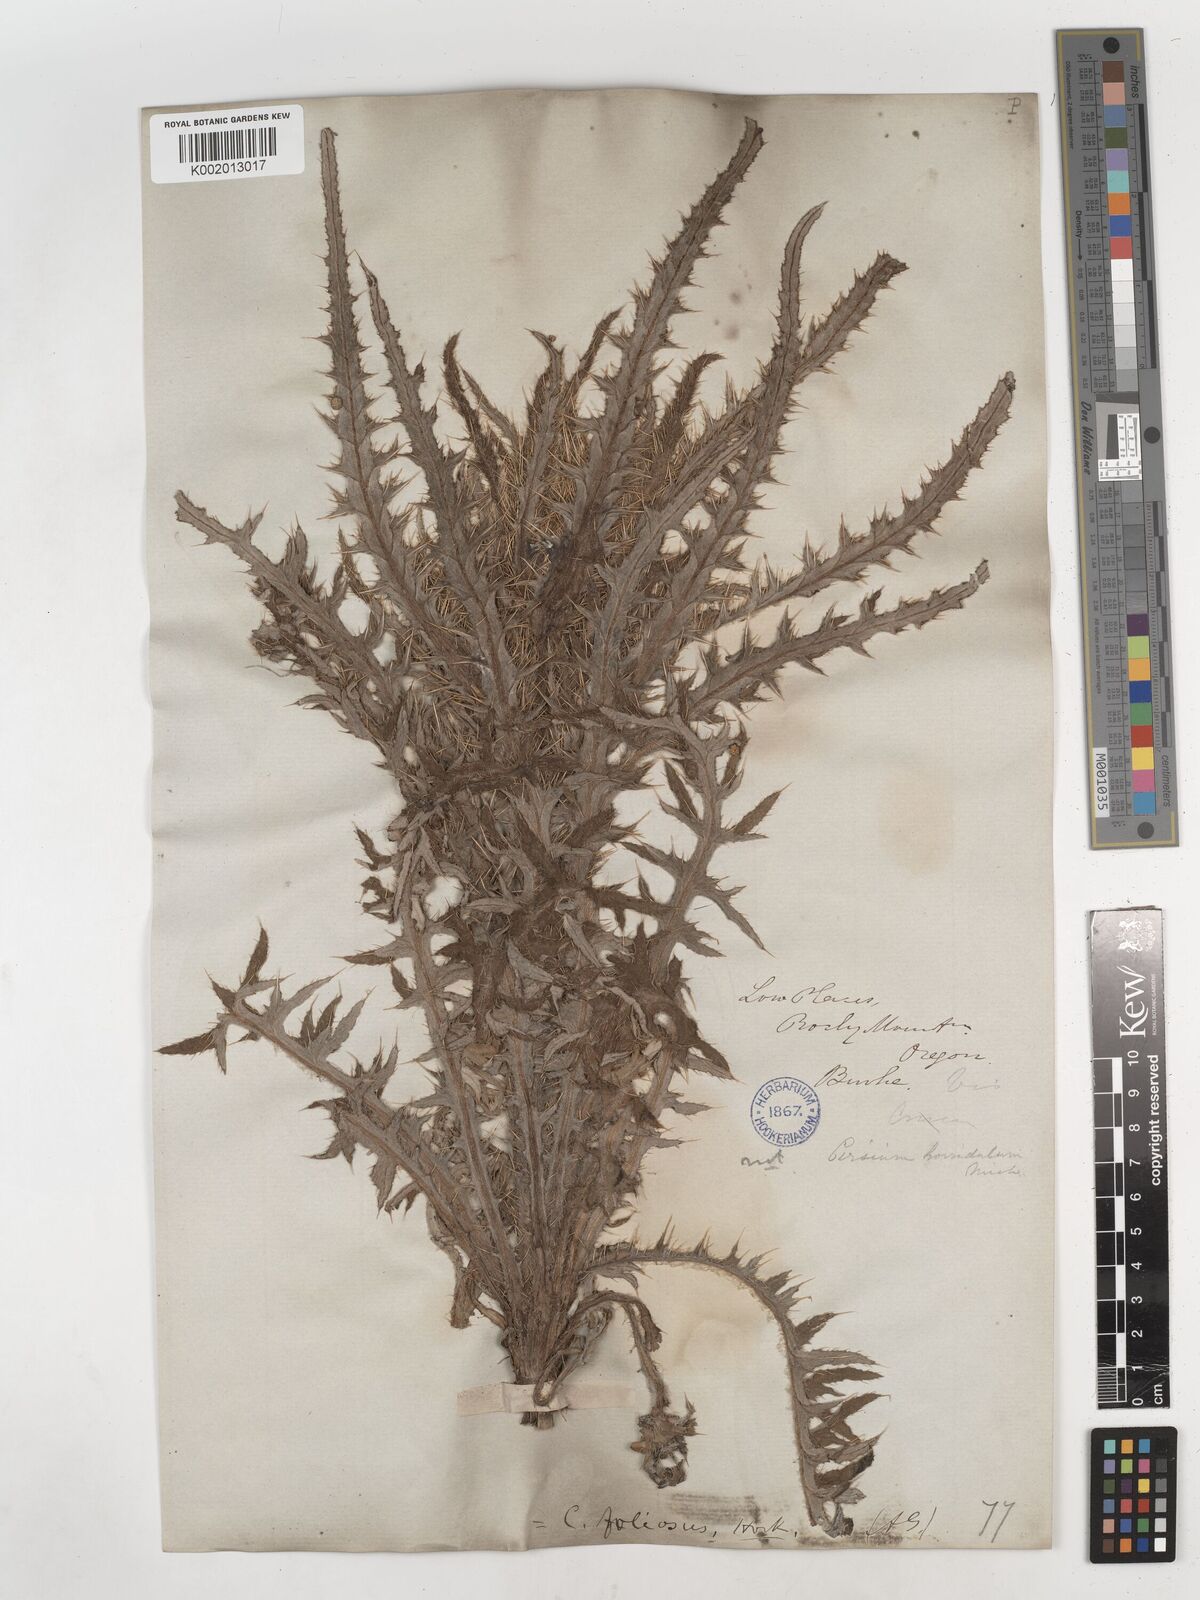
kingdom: Plantae
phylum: Tracheophyta
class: Magnoliopsida
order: Asterales
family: Asteraceae
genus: Cirsium
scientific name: Cirsium foliosum
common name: Elk thistle
